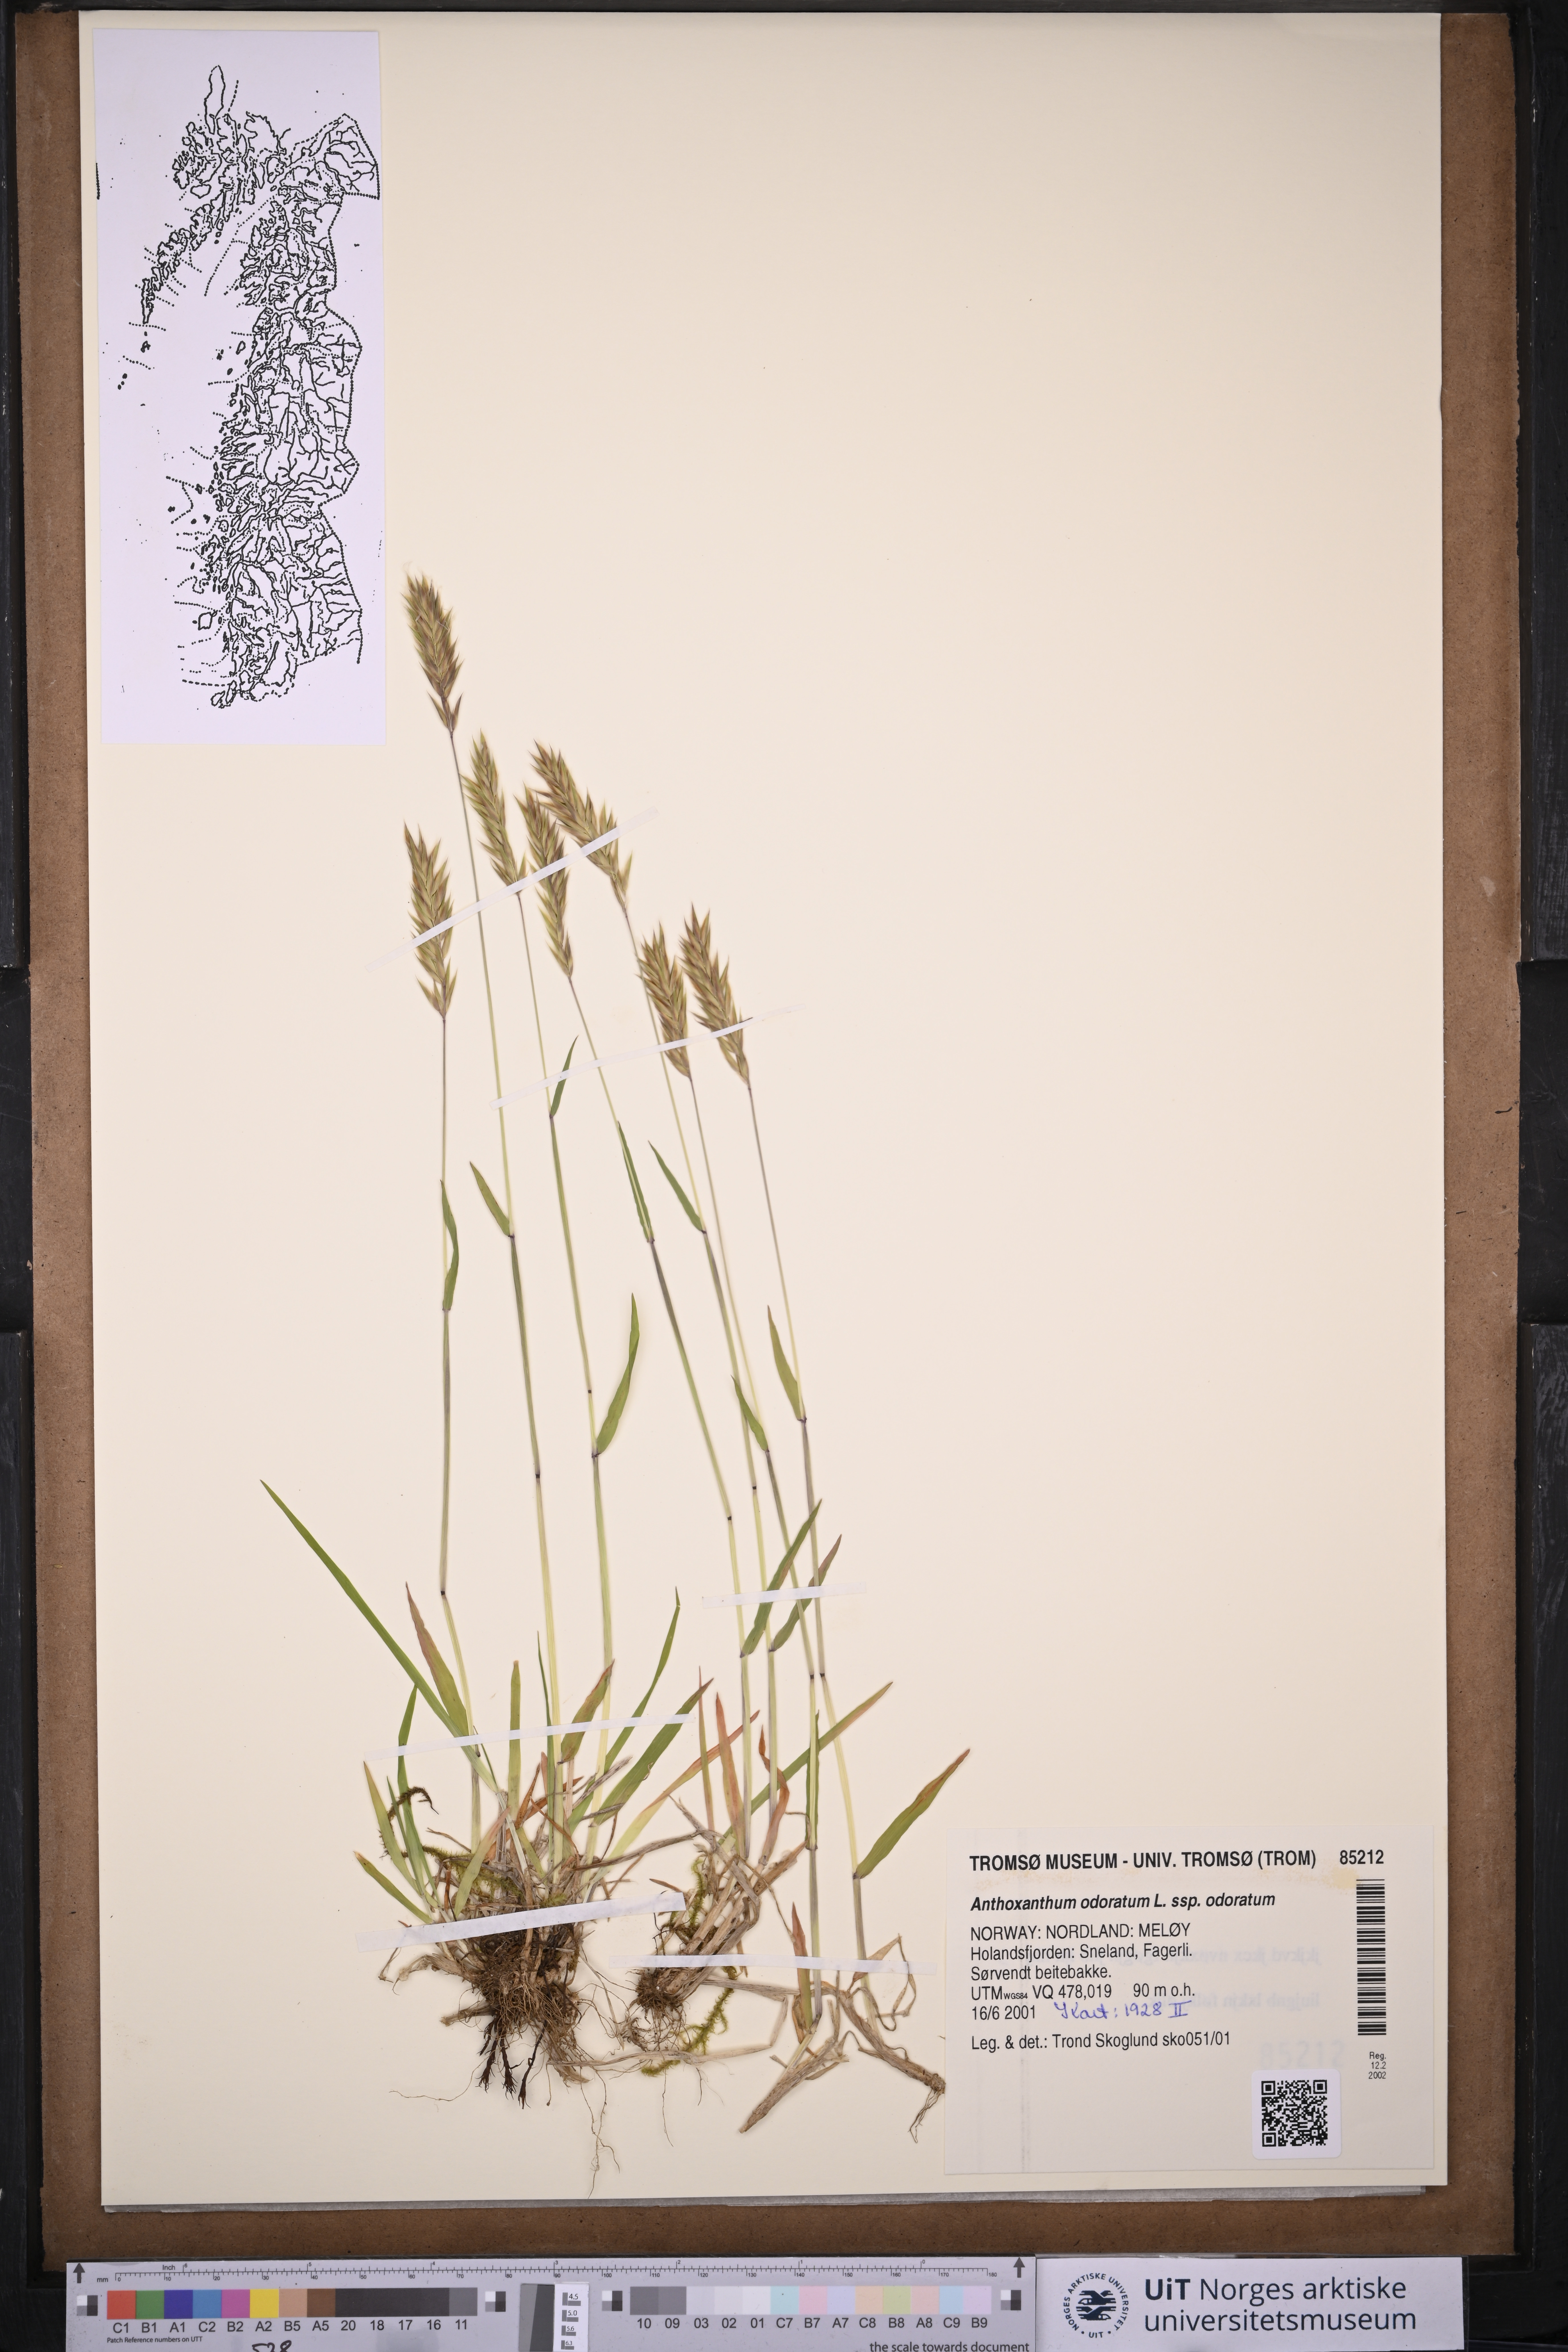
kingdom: Plantae
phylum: Tracheophyta
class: Liliopsida
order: Poales
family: Poaceae
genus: Anthoxanthum
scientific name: Anthoxanthum odoratum
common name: Sweet vernalgrass
